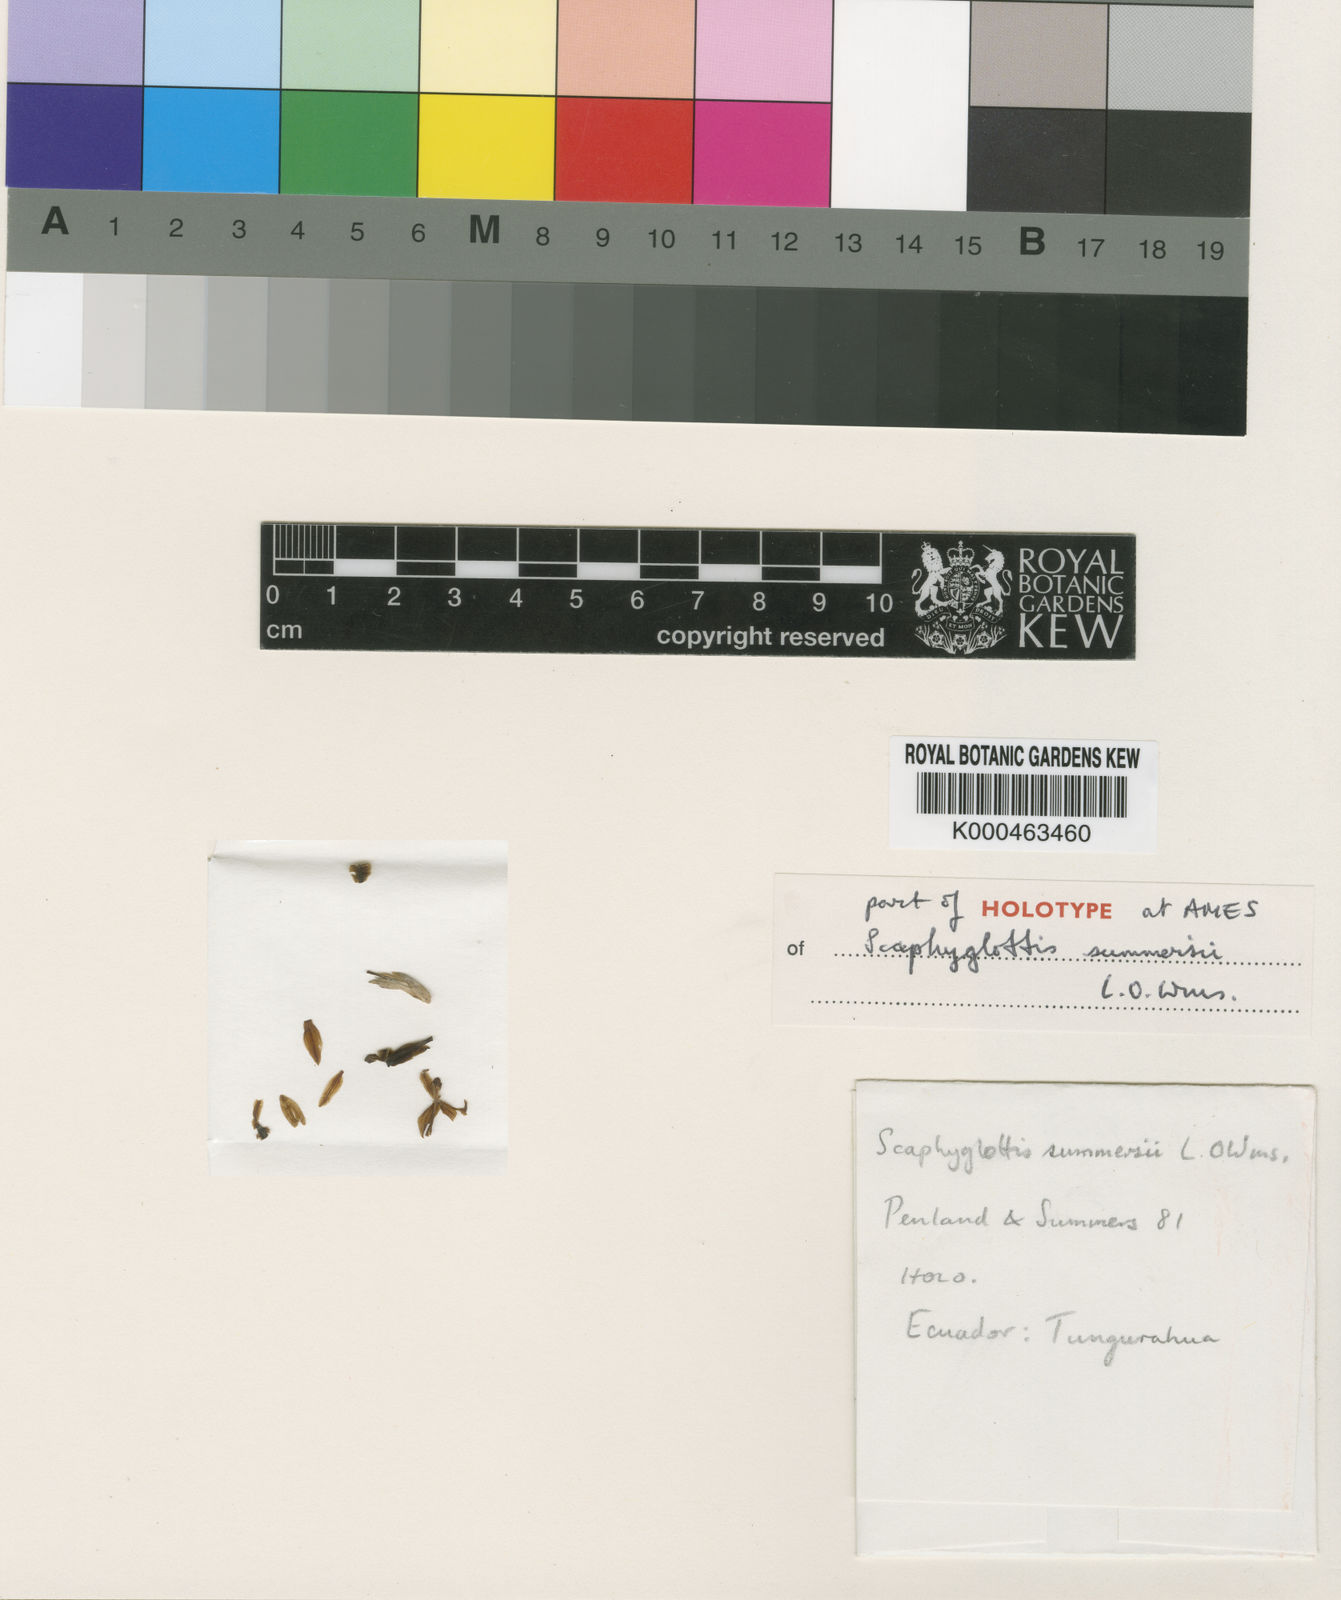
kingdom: Plantae
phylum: Tracheophyta
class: Liliopsida
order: Asparagales
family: Orchidaceae
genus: Scaphyglottis
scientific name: Scaphyglottis summersii
